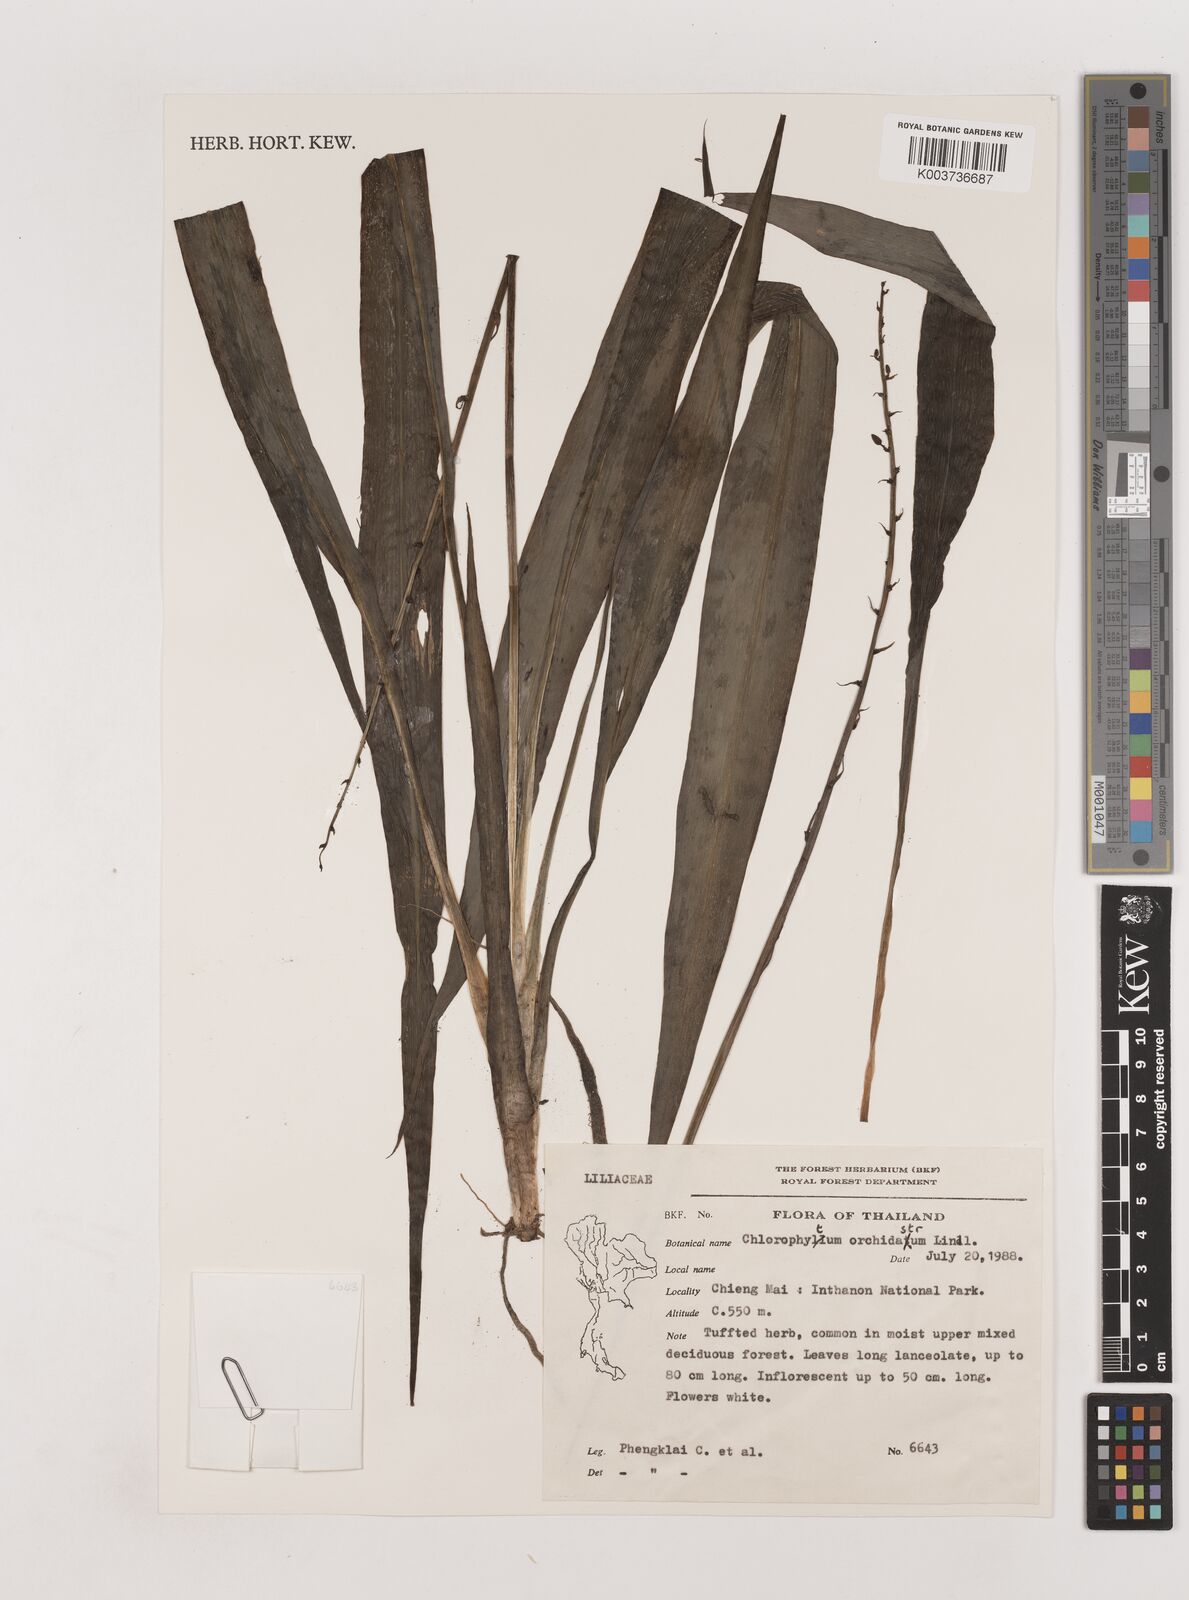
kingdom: Plantae
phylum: Tracheophyta
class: Liliopsida
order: Asparagales
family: Asparagaceae
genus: Chlorophytum
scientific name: Chlorophytum
